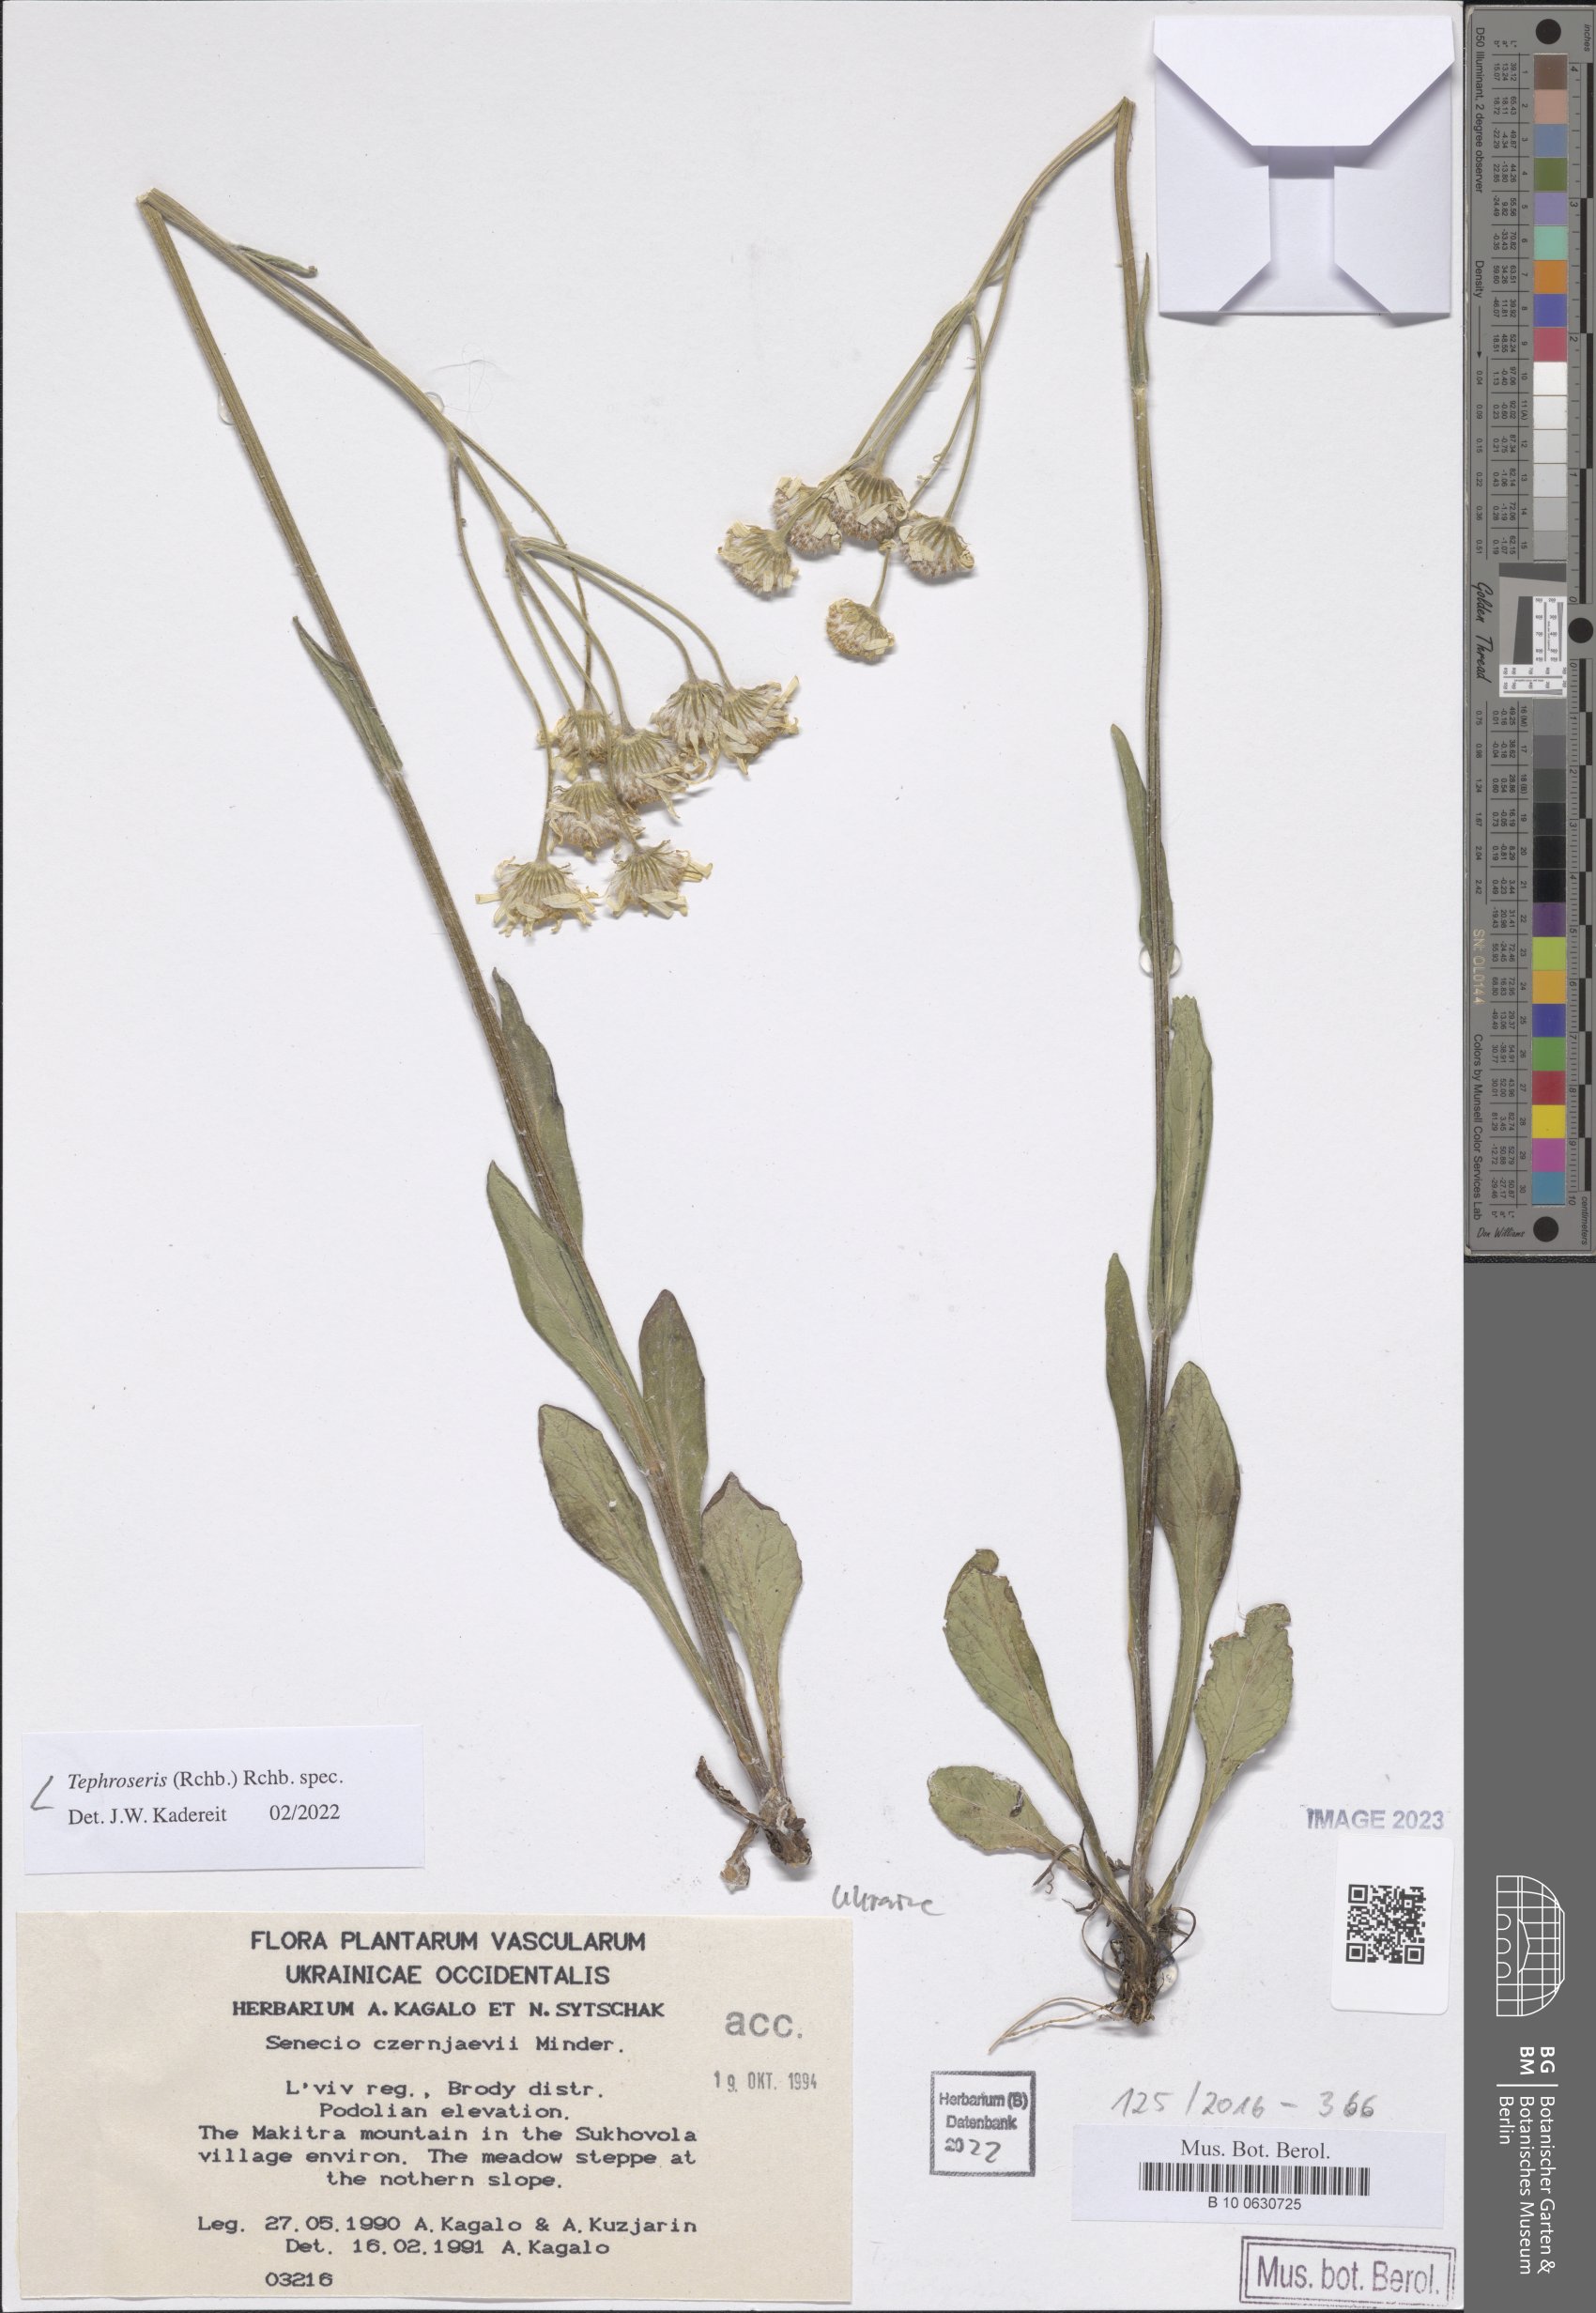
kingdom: Plantae
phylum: Tracheophyta
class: Magnoliopsida
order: Asterales
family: Asteraceae
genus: Tephroseris
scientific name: Tephroseris
